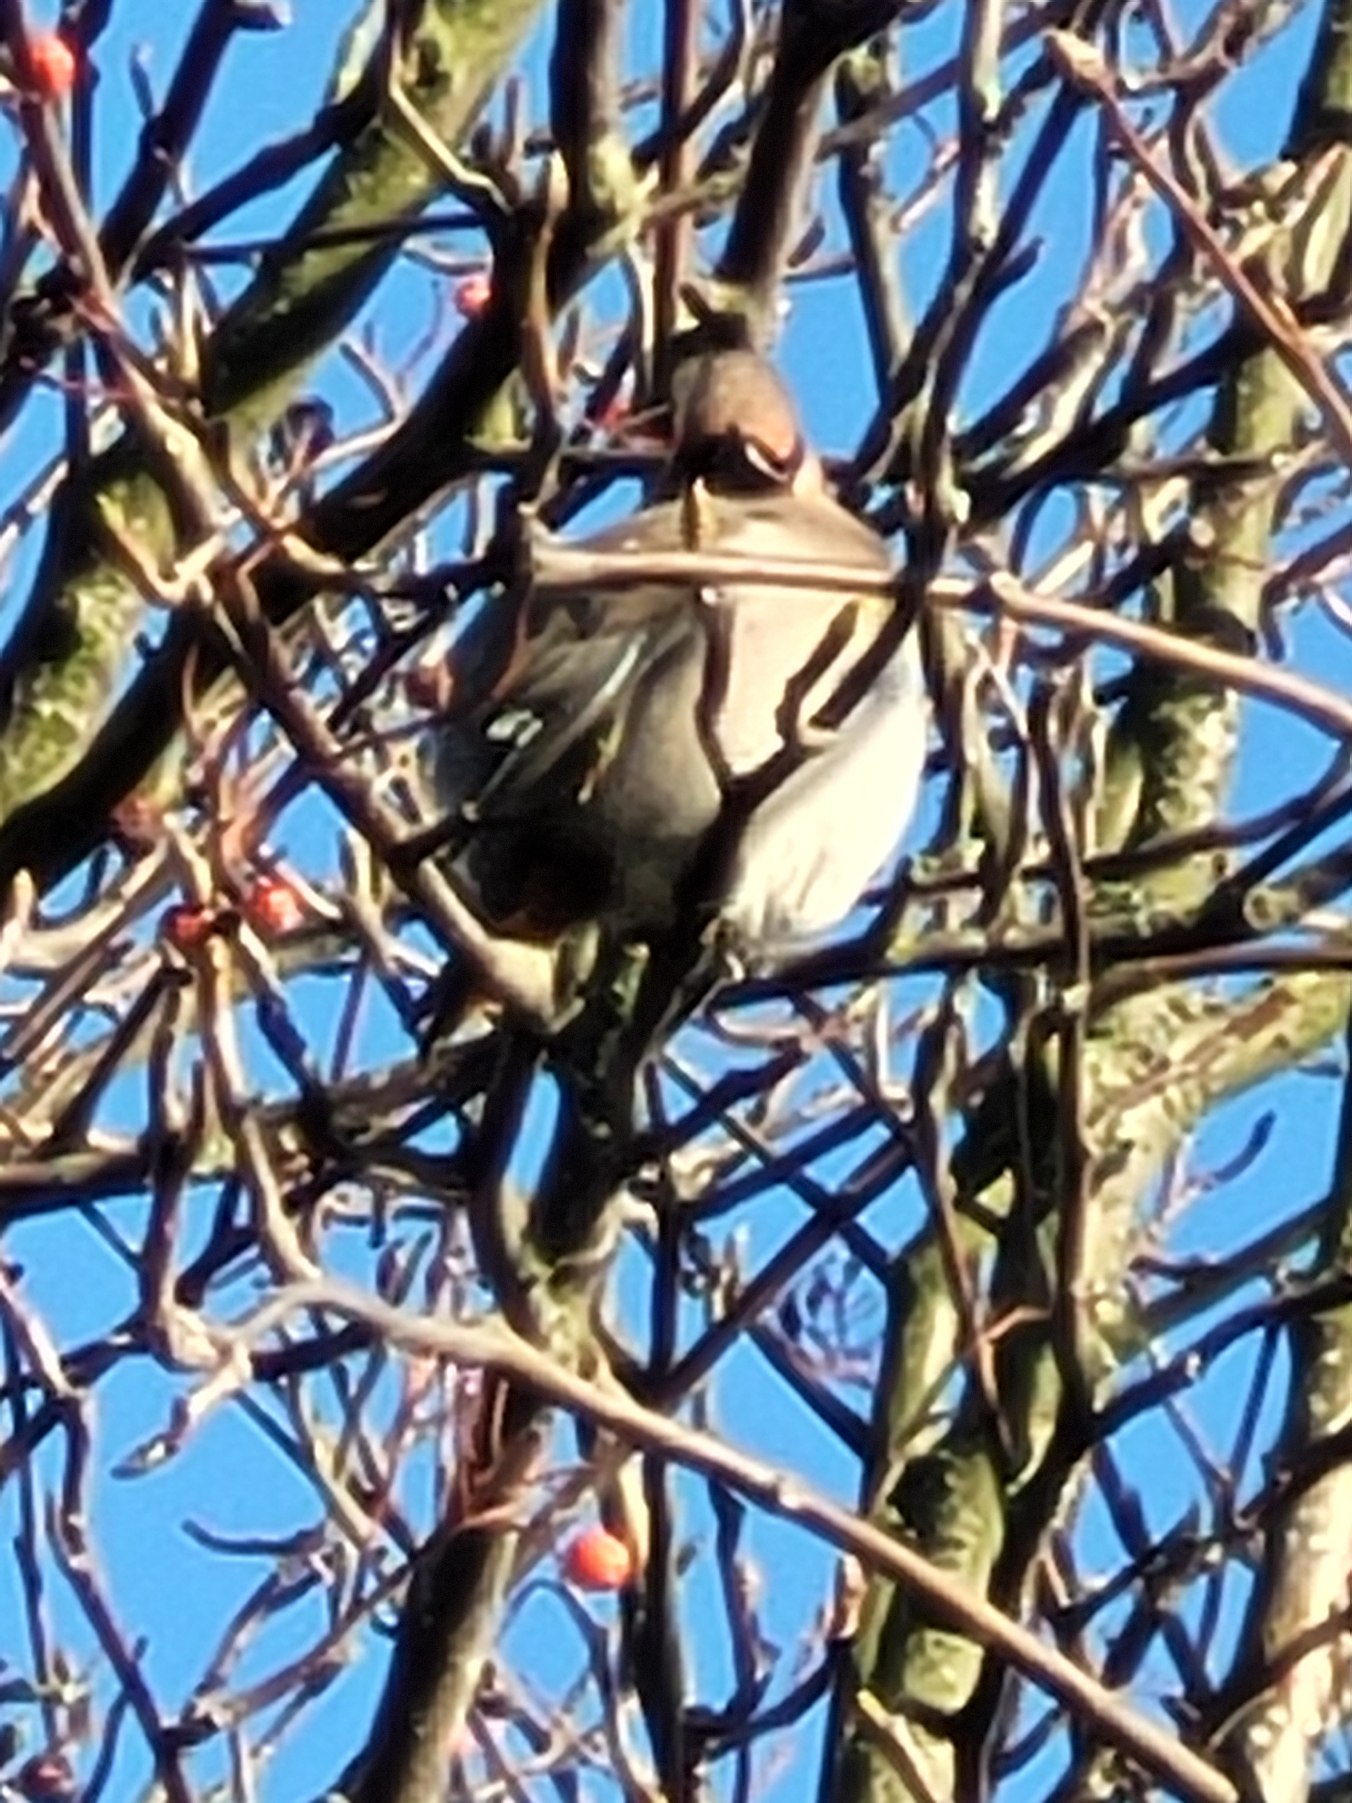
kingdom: Animalia
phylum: Chordata
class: Aves
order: Passeriformes
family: Bombycillidae
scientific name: Bombycillidae
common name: Silkehaler
